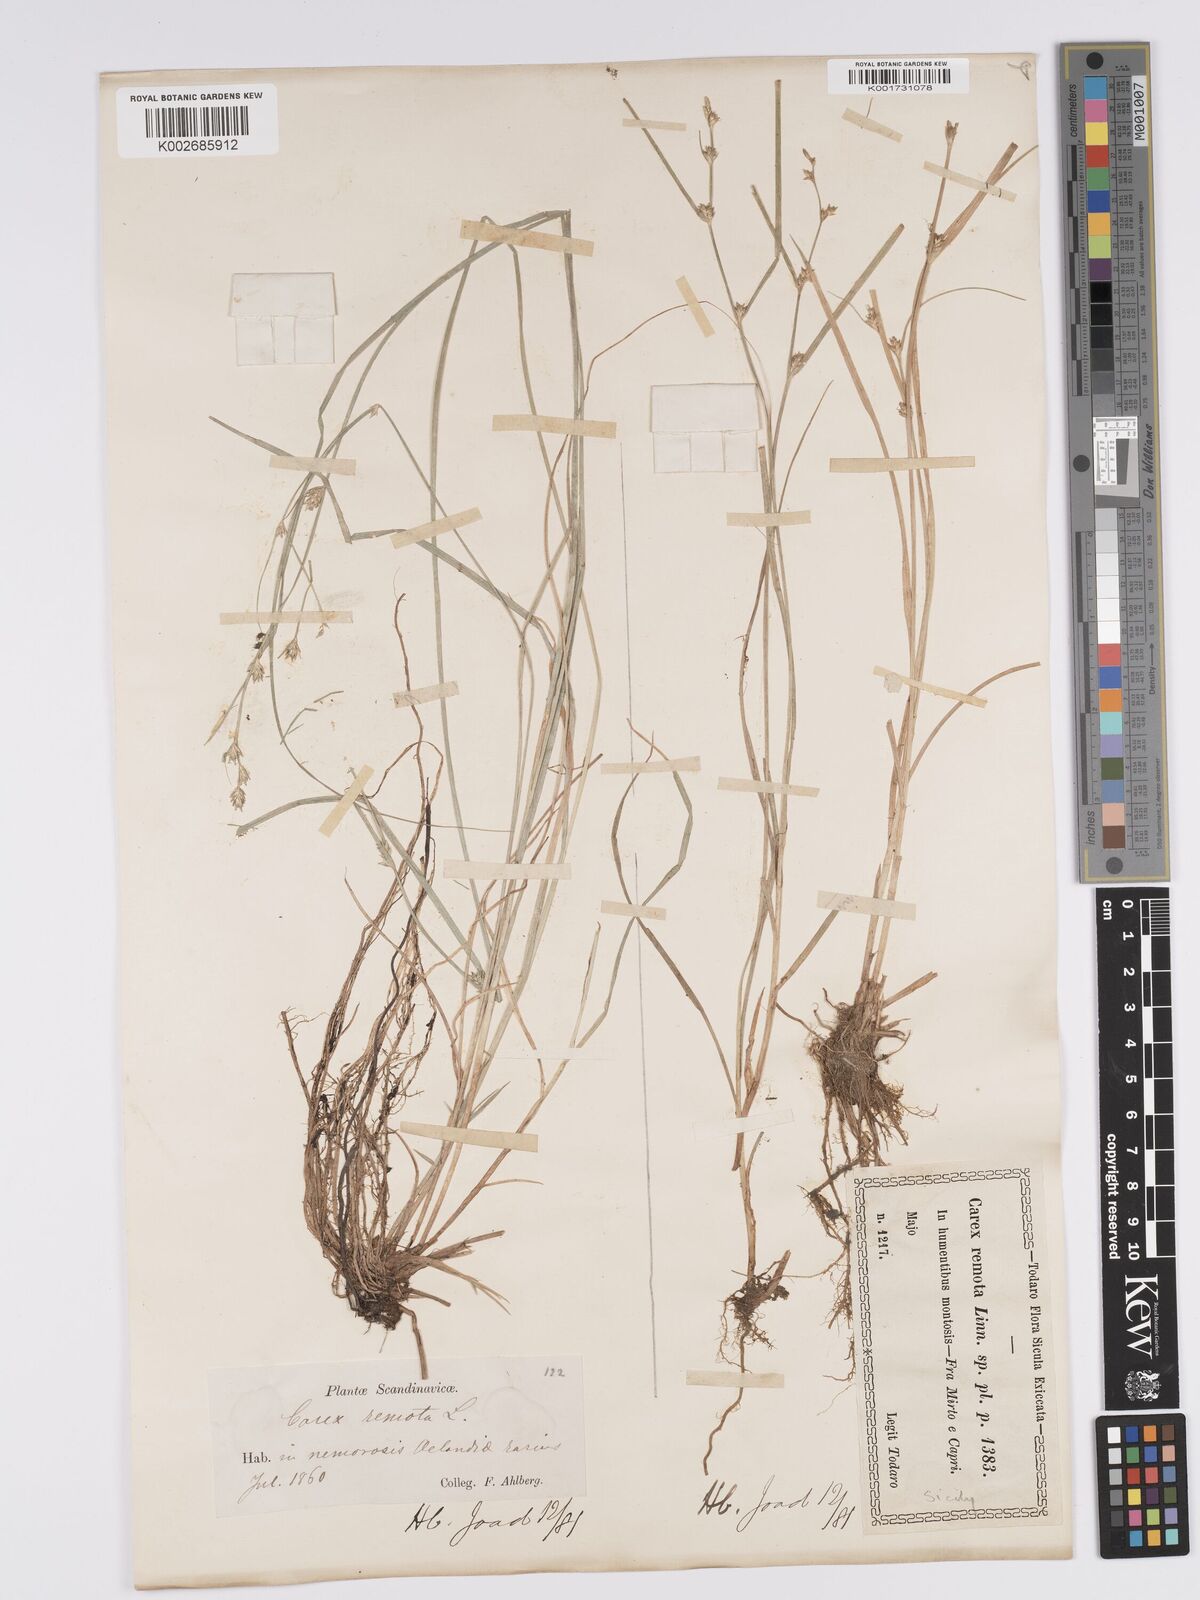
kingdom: Plantae
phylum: Tracheophyta
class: Liliopsida
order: Poales
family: Cyperaceae
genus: Carex
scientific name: Carex remota
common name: Remote sedge
